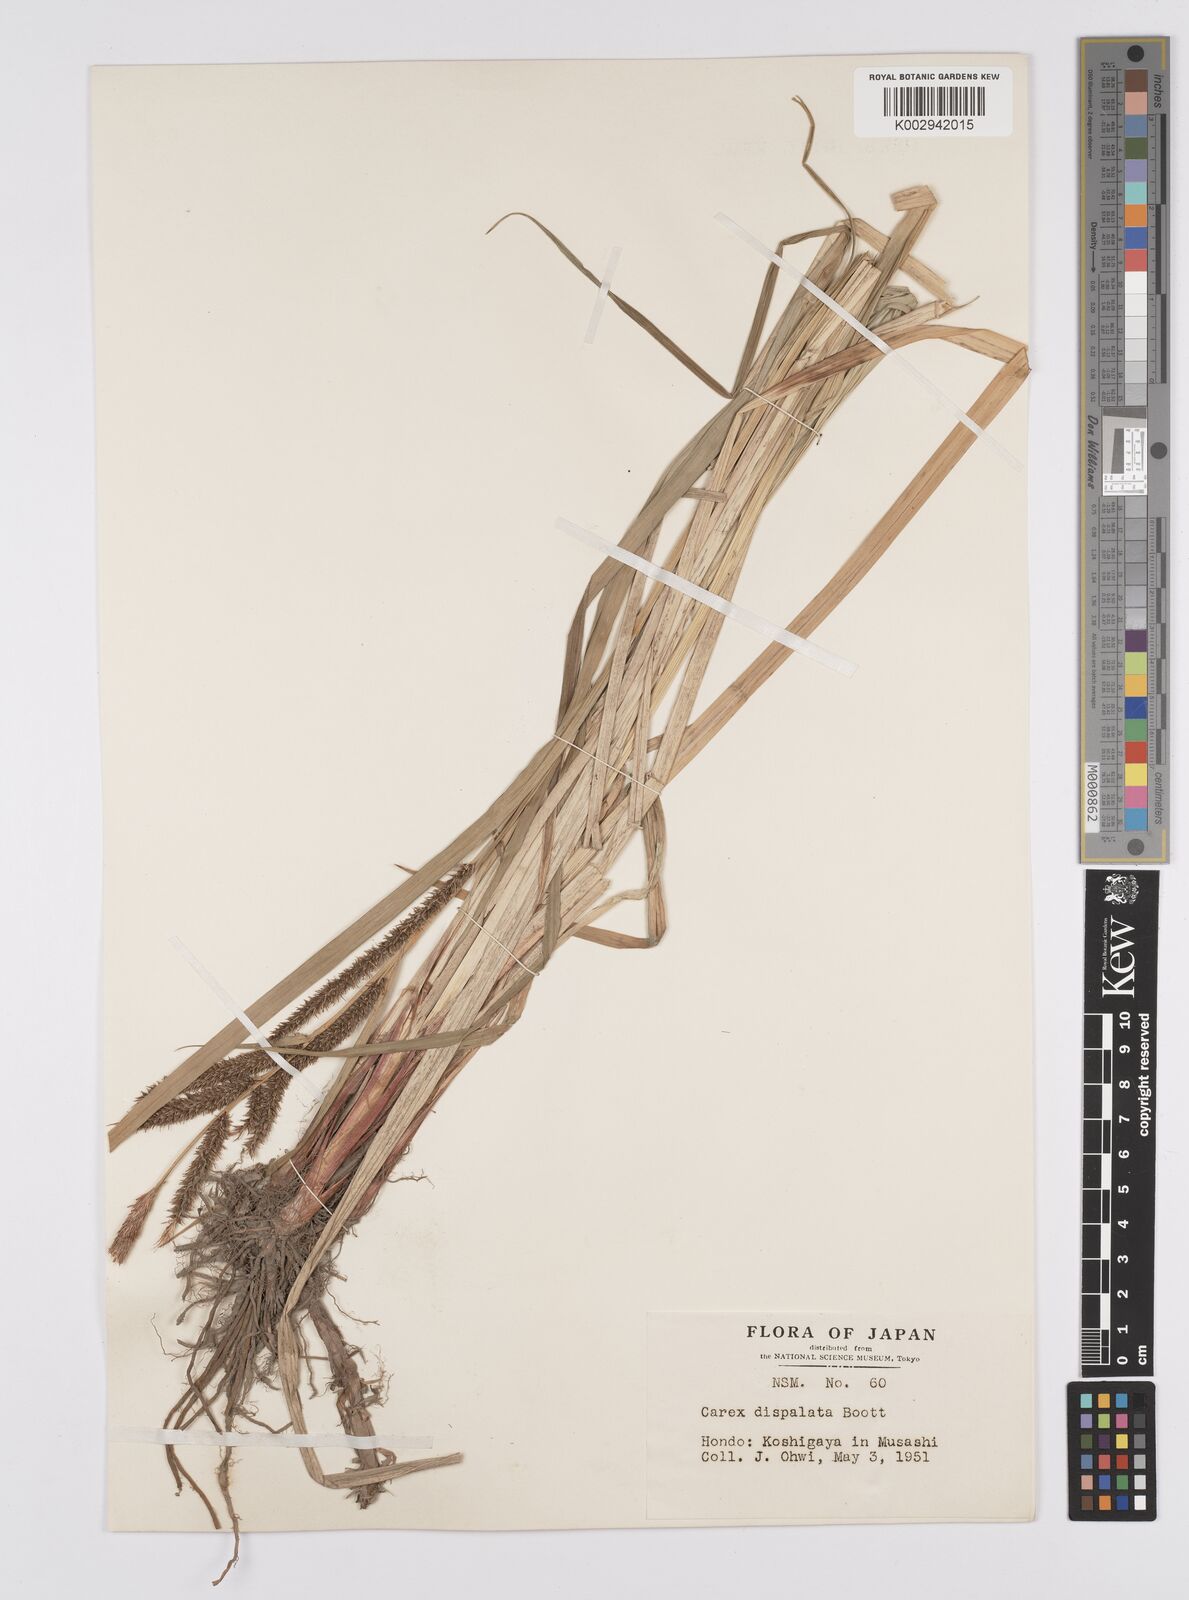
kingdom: Plantae
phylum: Tracheophyta
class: Liliopsida
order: Poales
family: Cyperaceae
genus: Carex
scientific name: Carex dispalata
